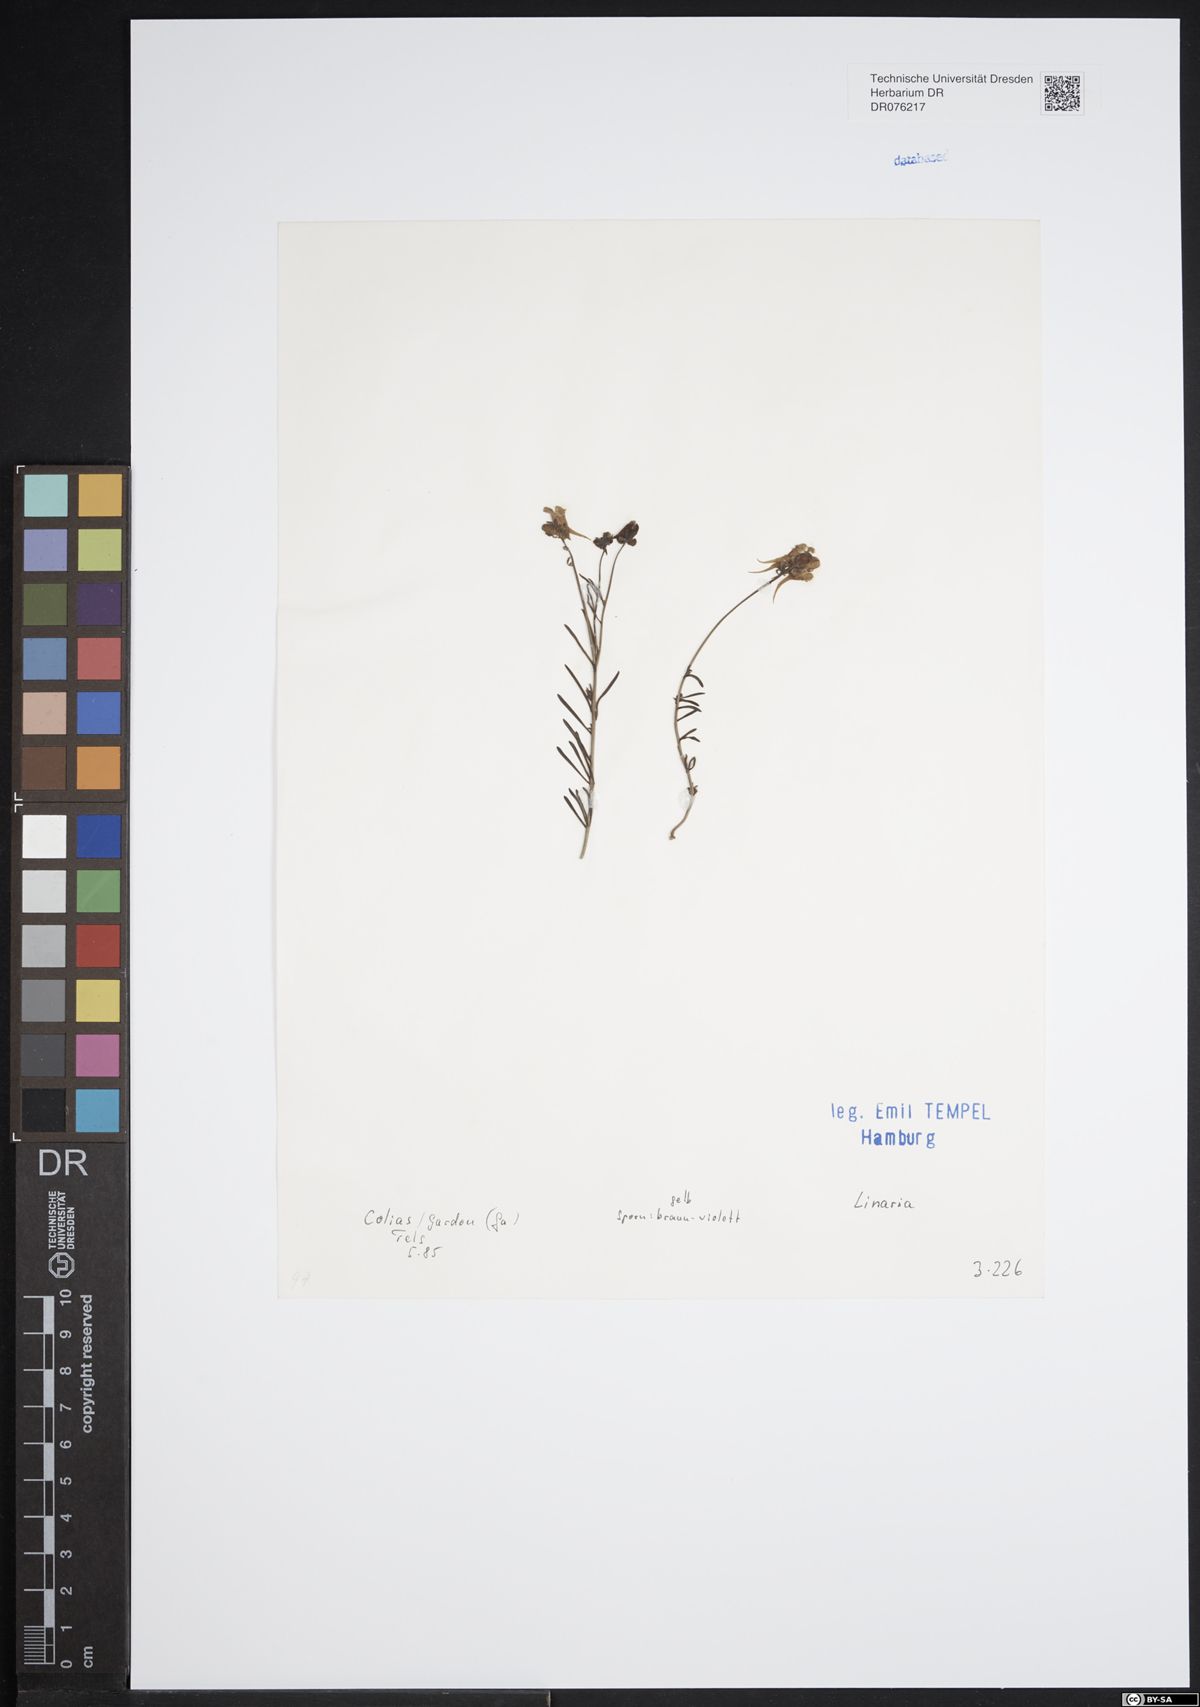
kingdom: Plantae
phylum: Tracheophyta
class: Magnoliopsida
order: Lamiales
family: Plantaginaceae
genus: Linaria
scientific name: Linaria
